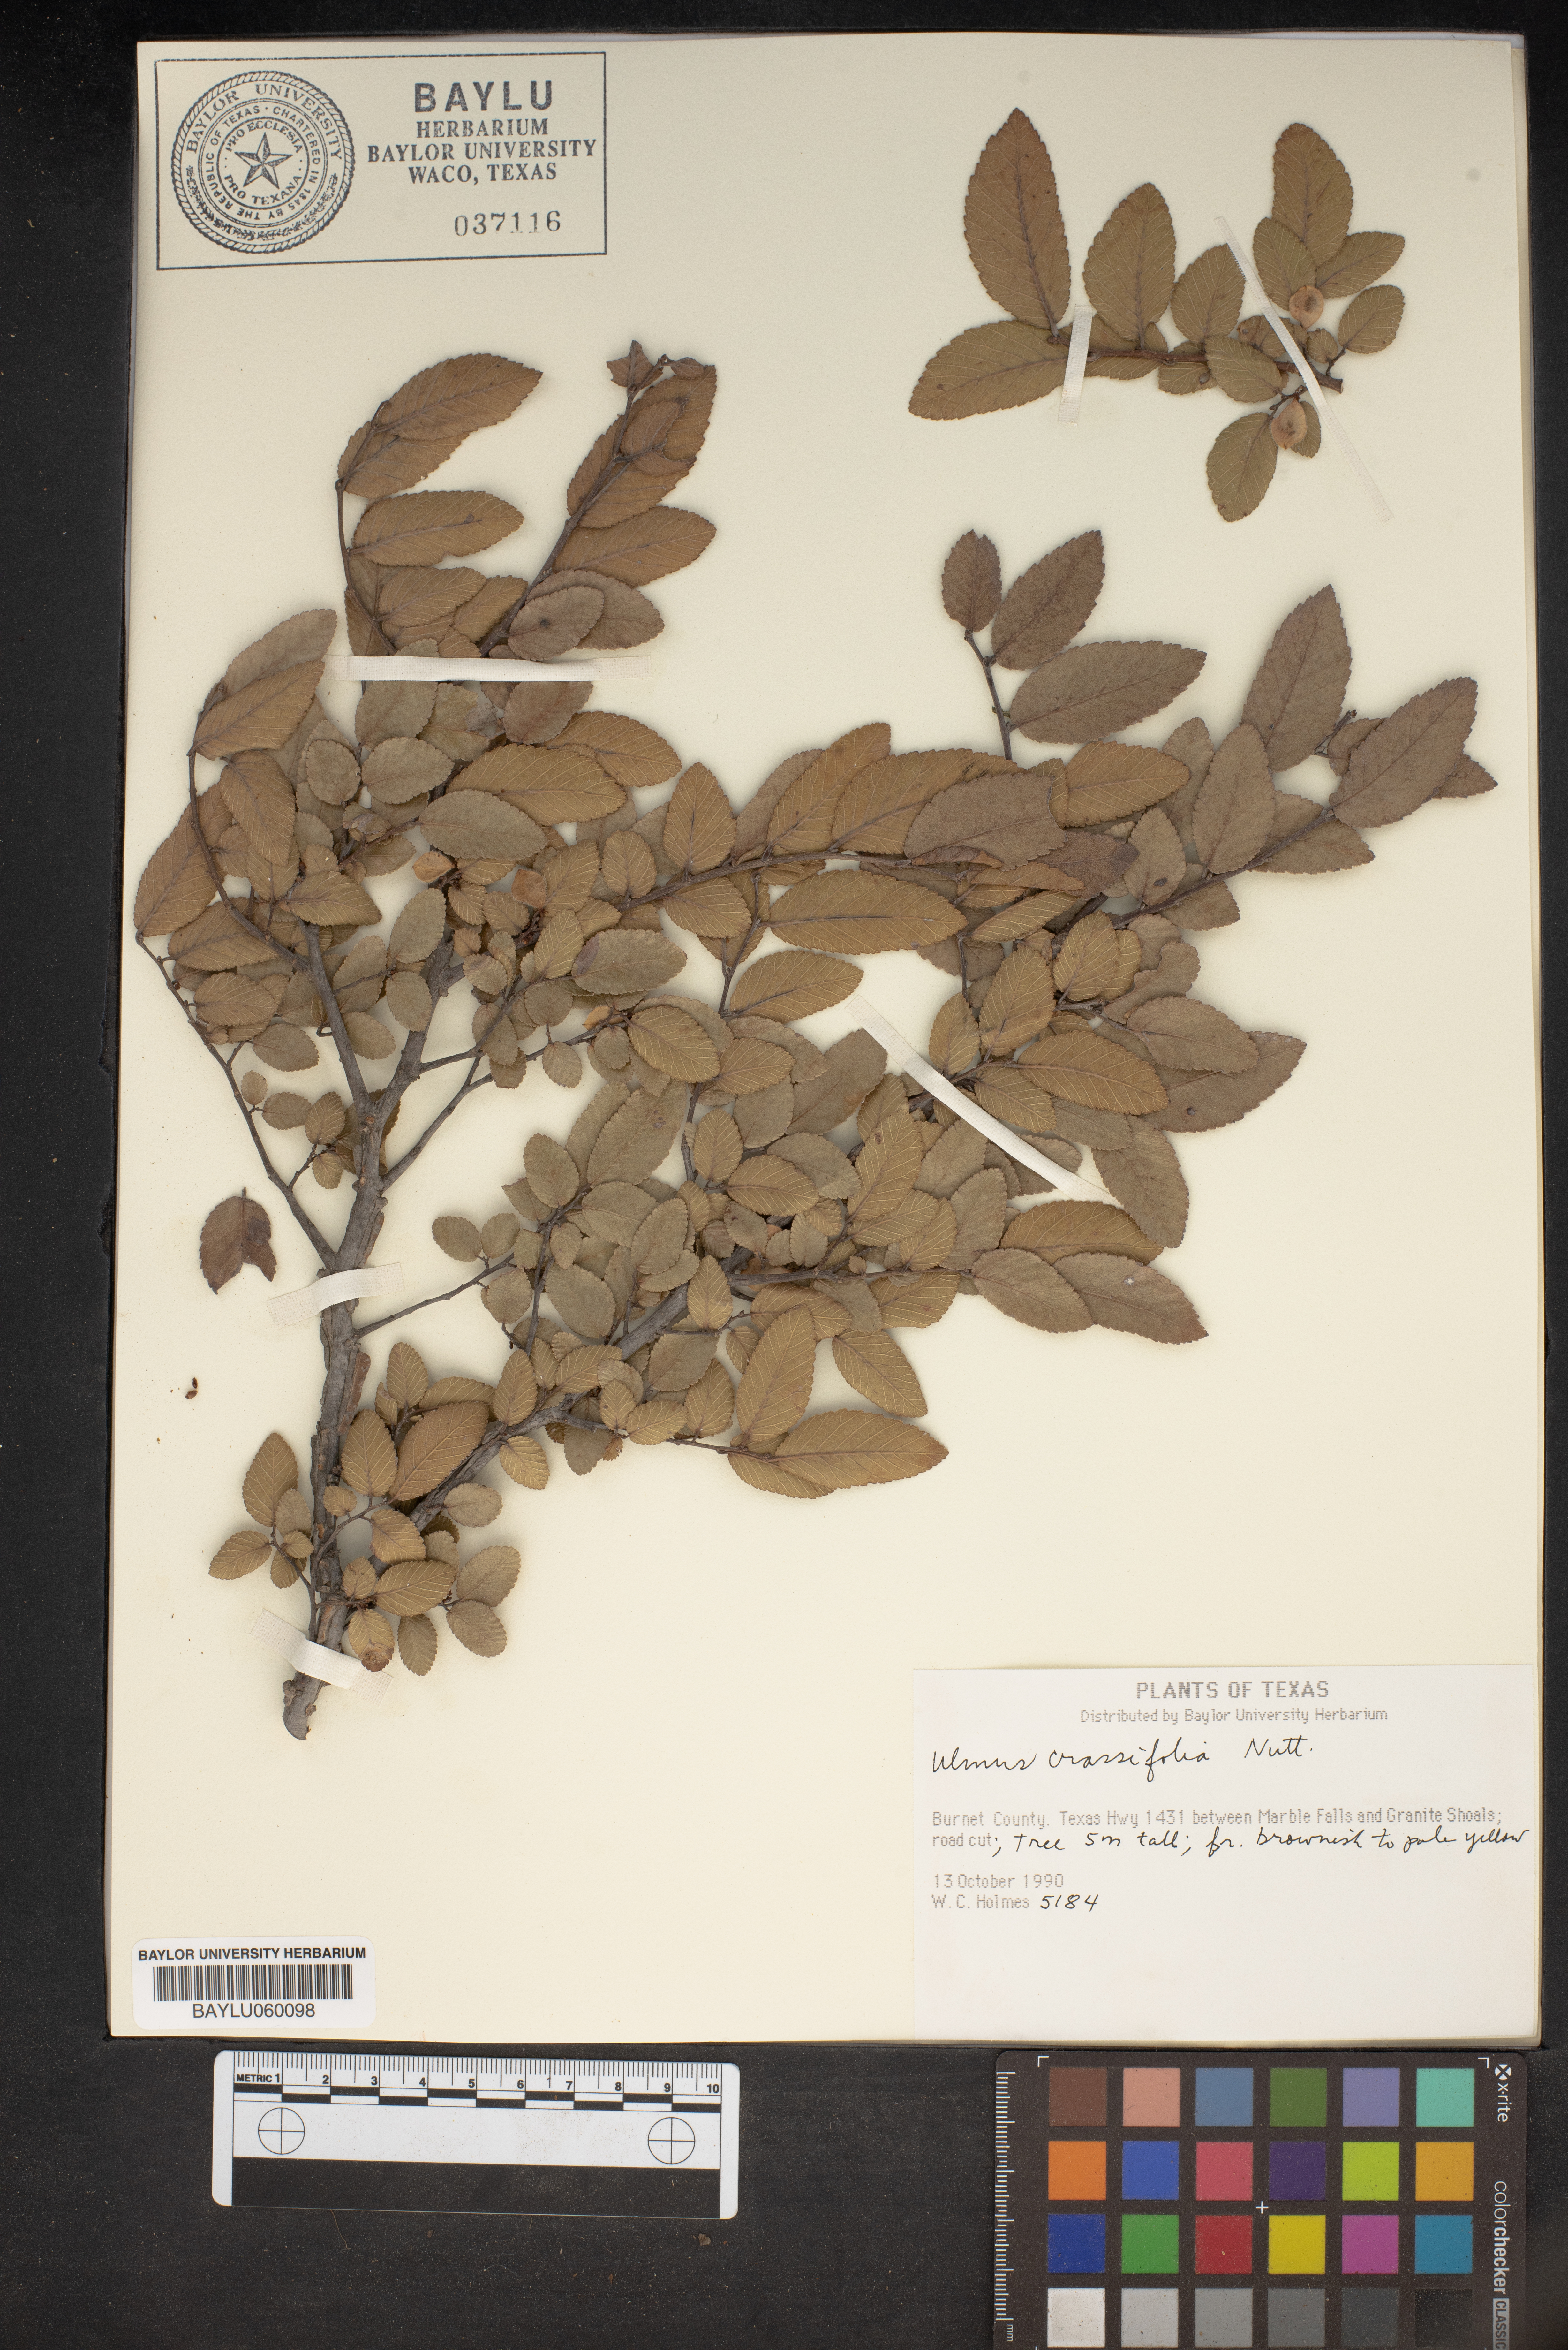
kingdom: Plantae
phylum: Tracheophyta
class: Magnoliopsida
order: Rosales
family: Ulmaceae
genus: Ulmus
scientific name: Ulmus crassifolia
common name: Basket elm
